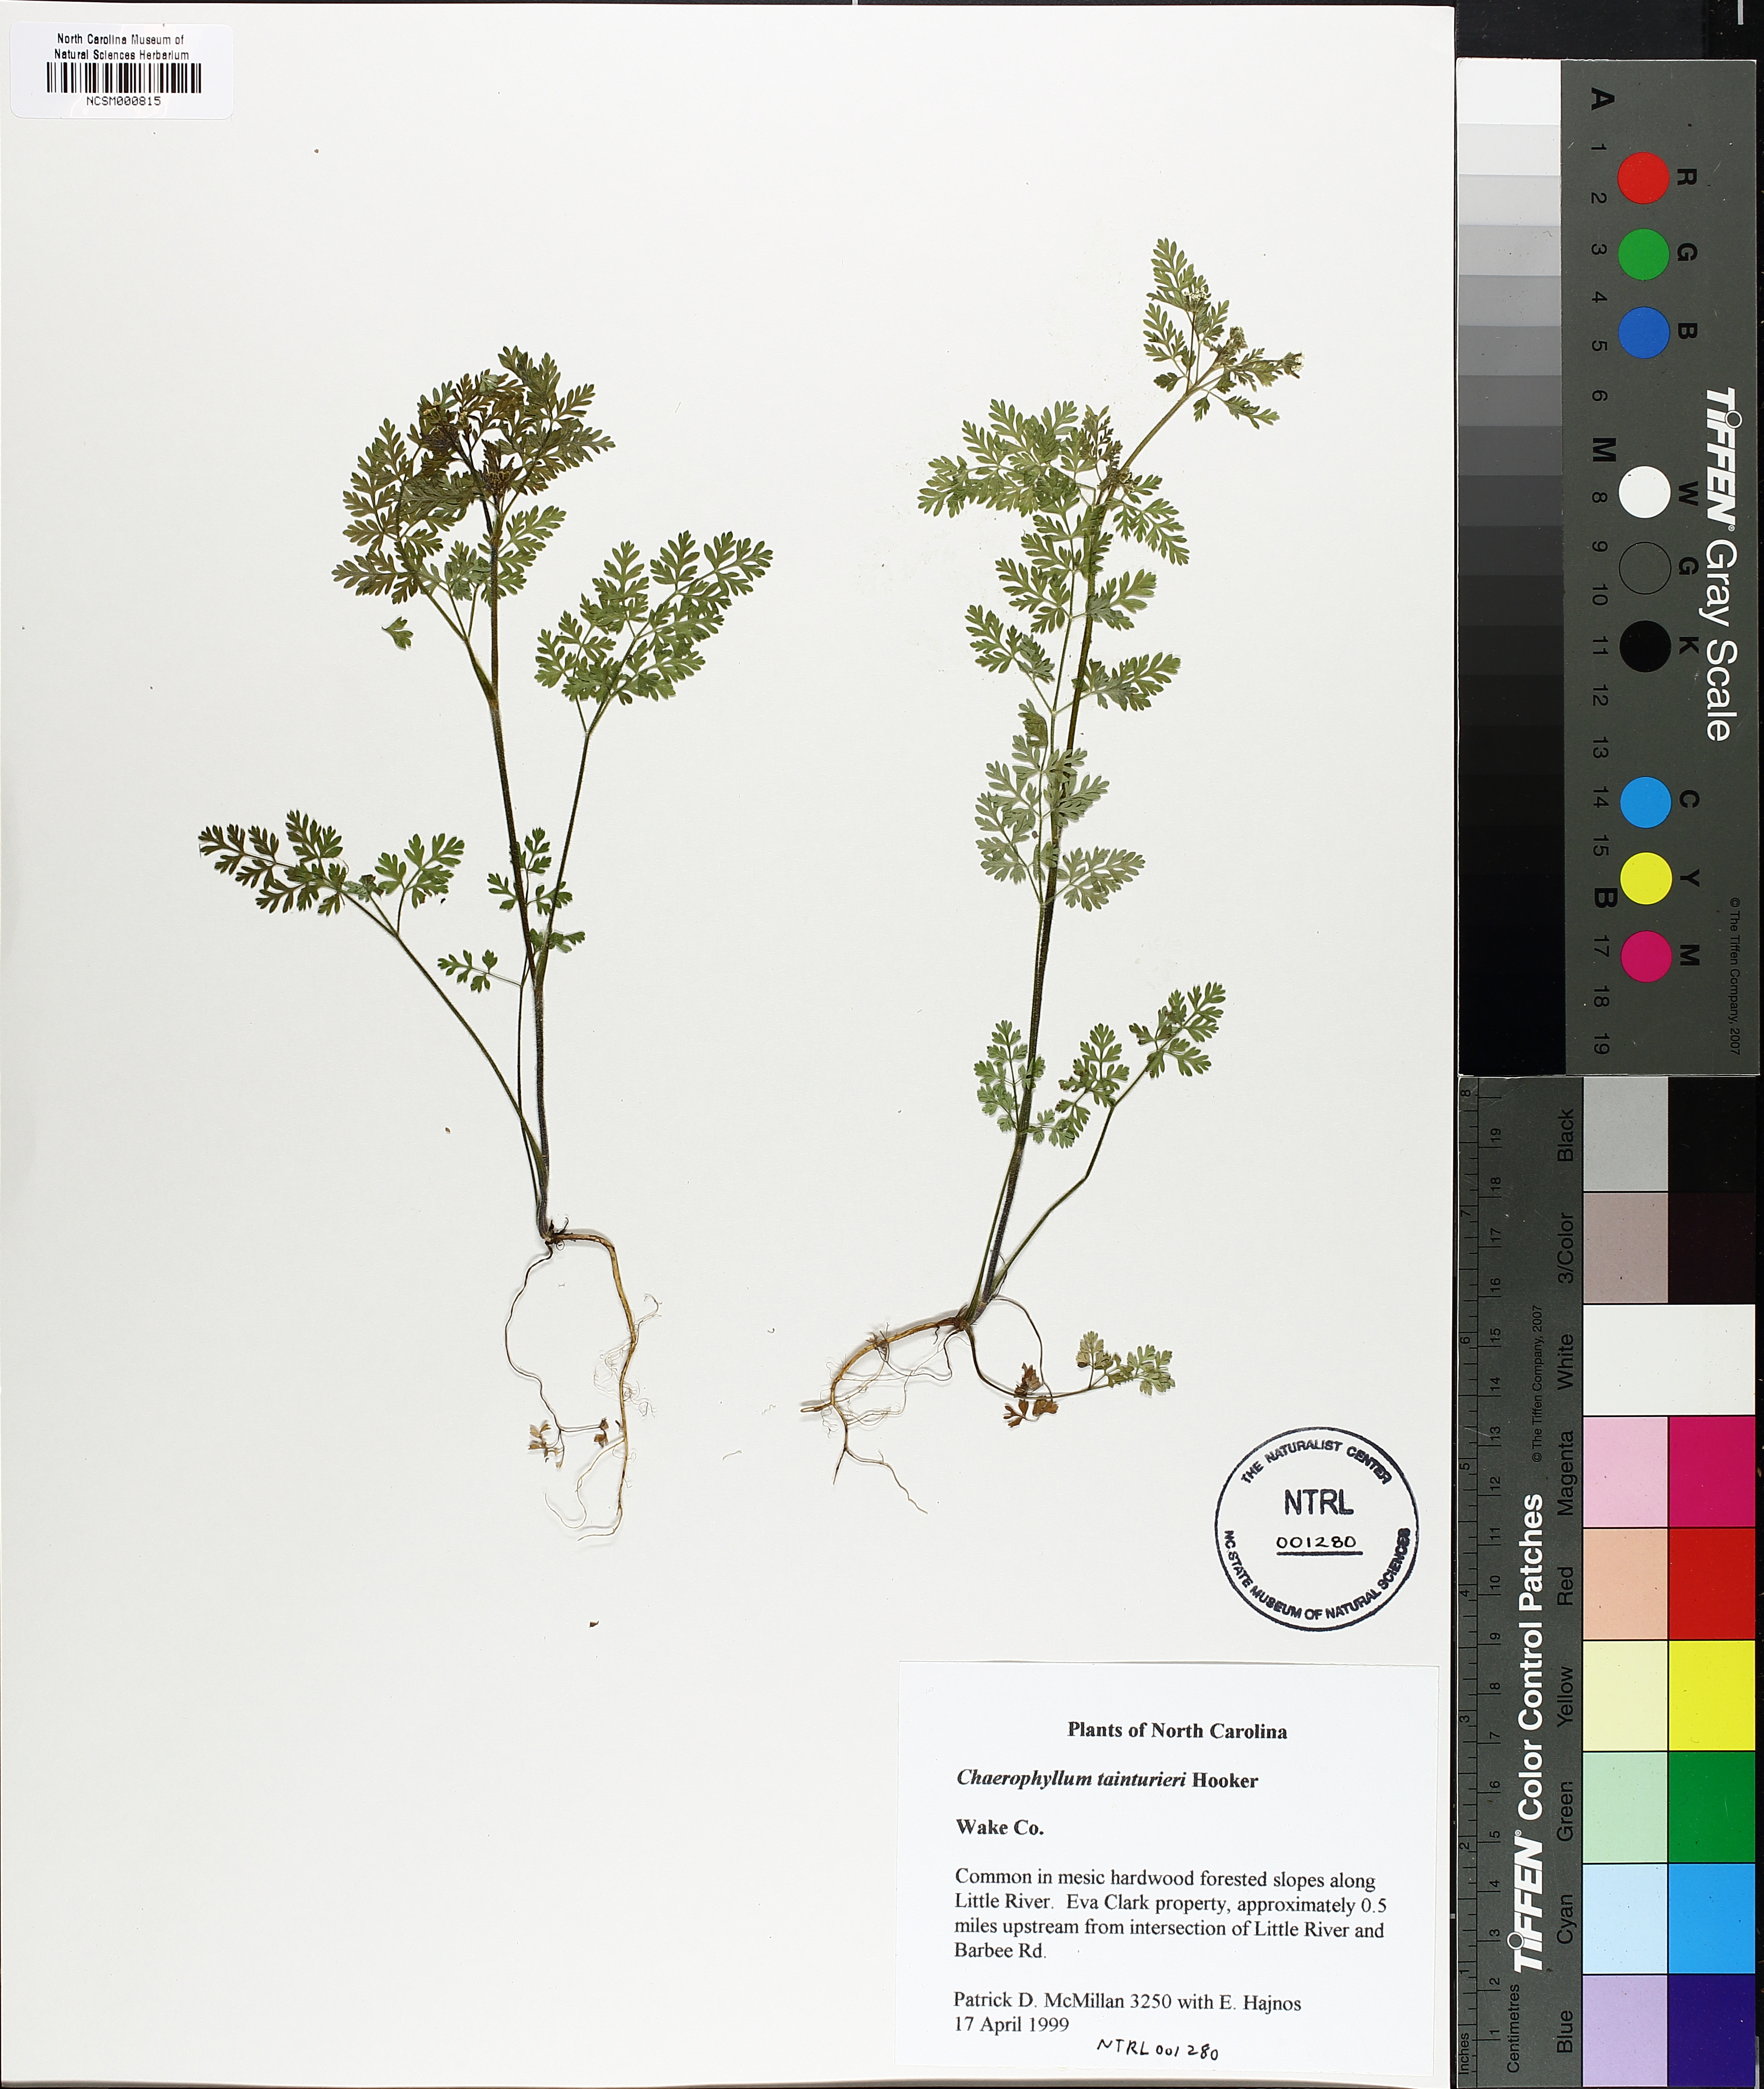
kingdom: Plantae
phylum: Tracheophyta
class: Magnoliopsida
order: Apiales
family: Apiaceae
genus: Chaerophyllum
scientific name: Chaerophyllum tainturieri
